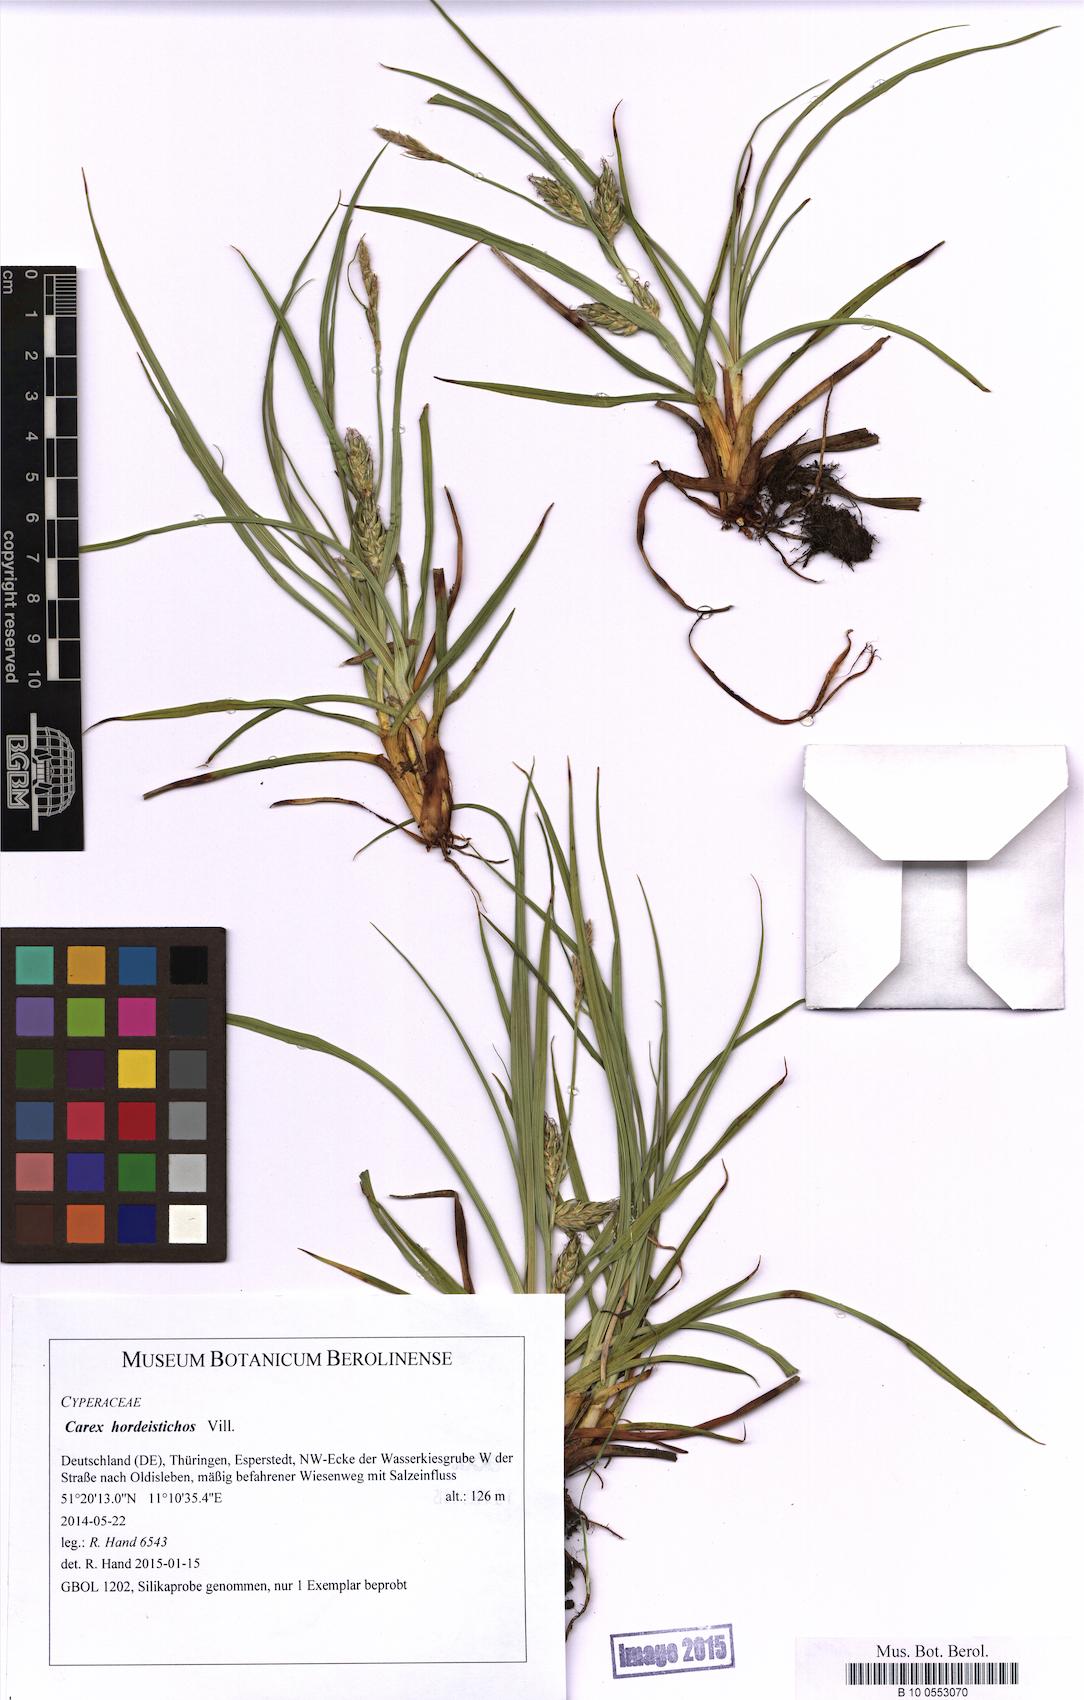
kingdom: Plantae
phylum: Tracheophyta
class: Liliopsida
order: Poales
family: Cyperaceae
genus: Carex
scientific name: Carex hordeistichos
